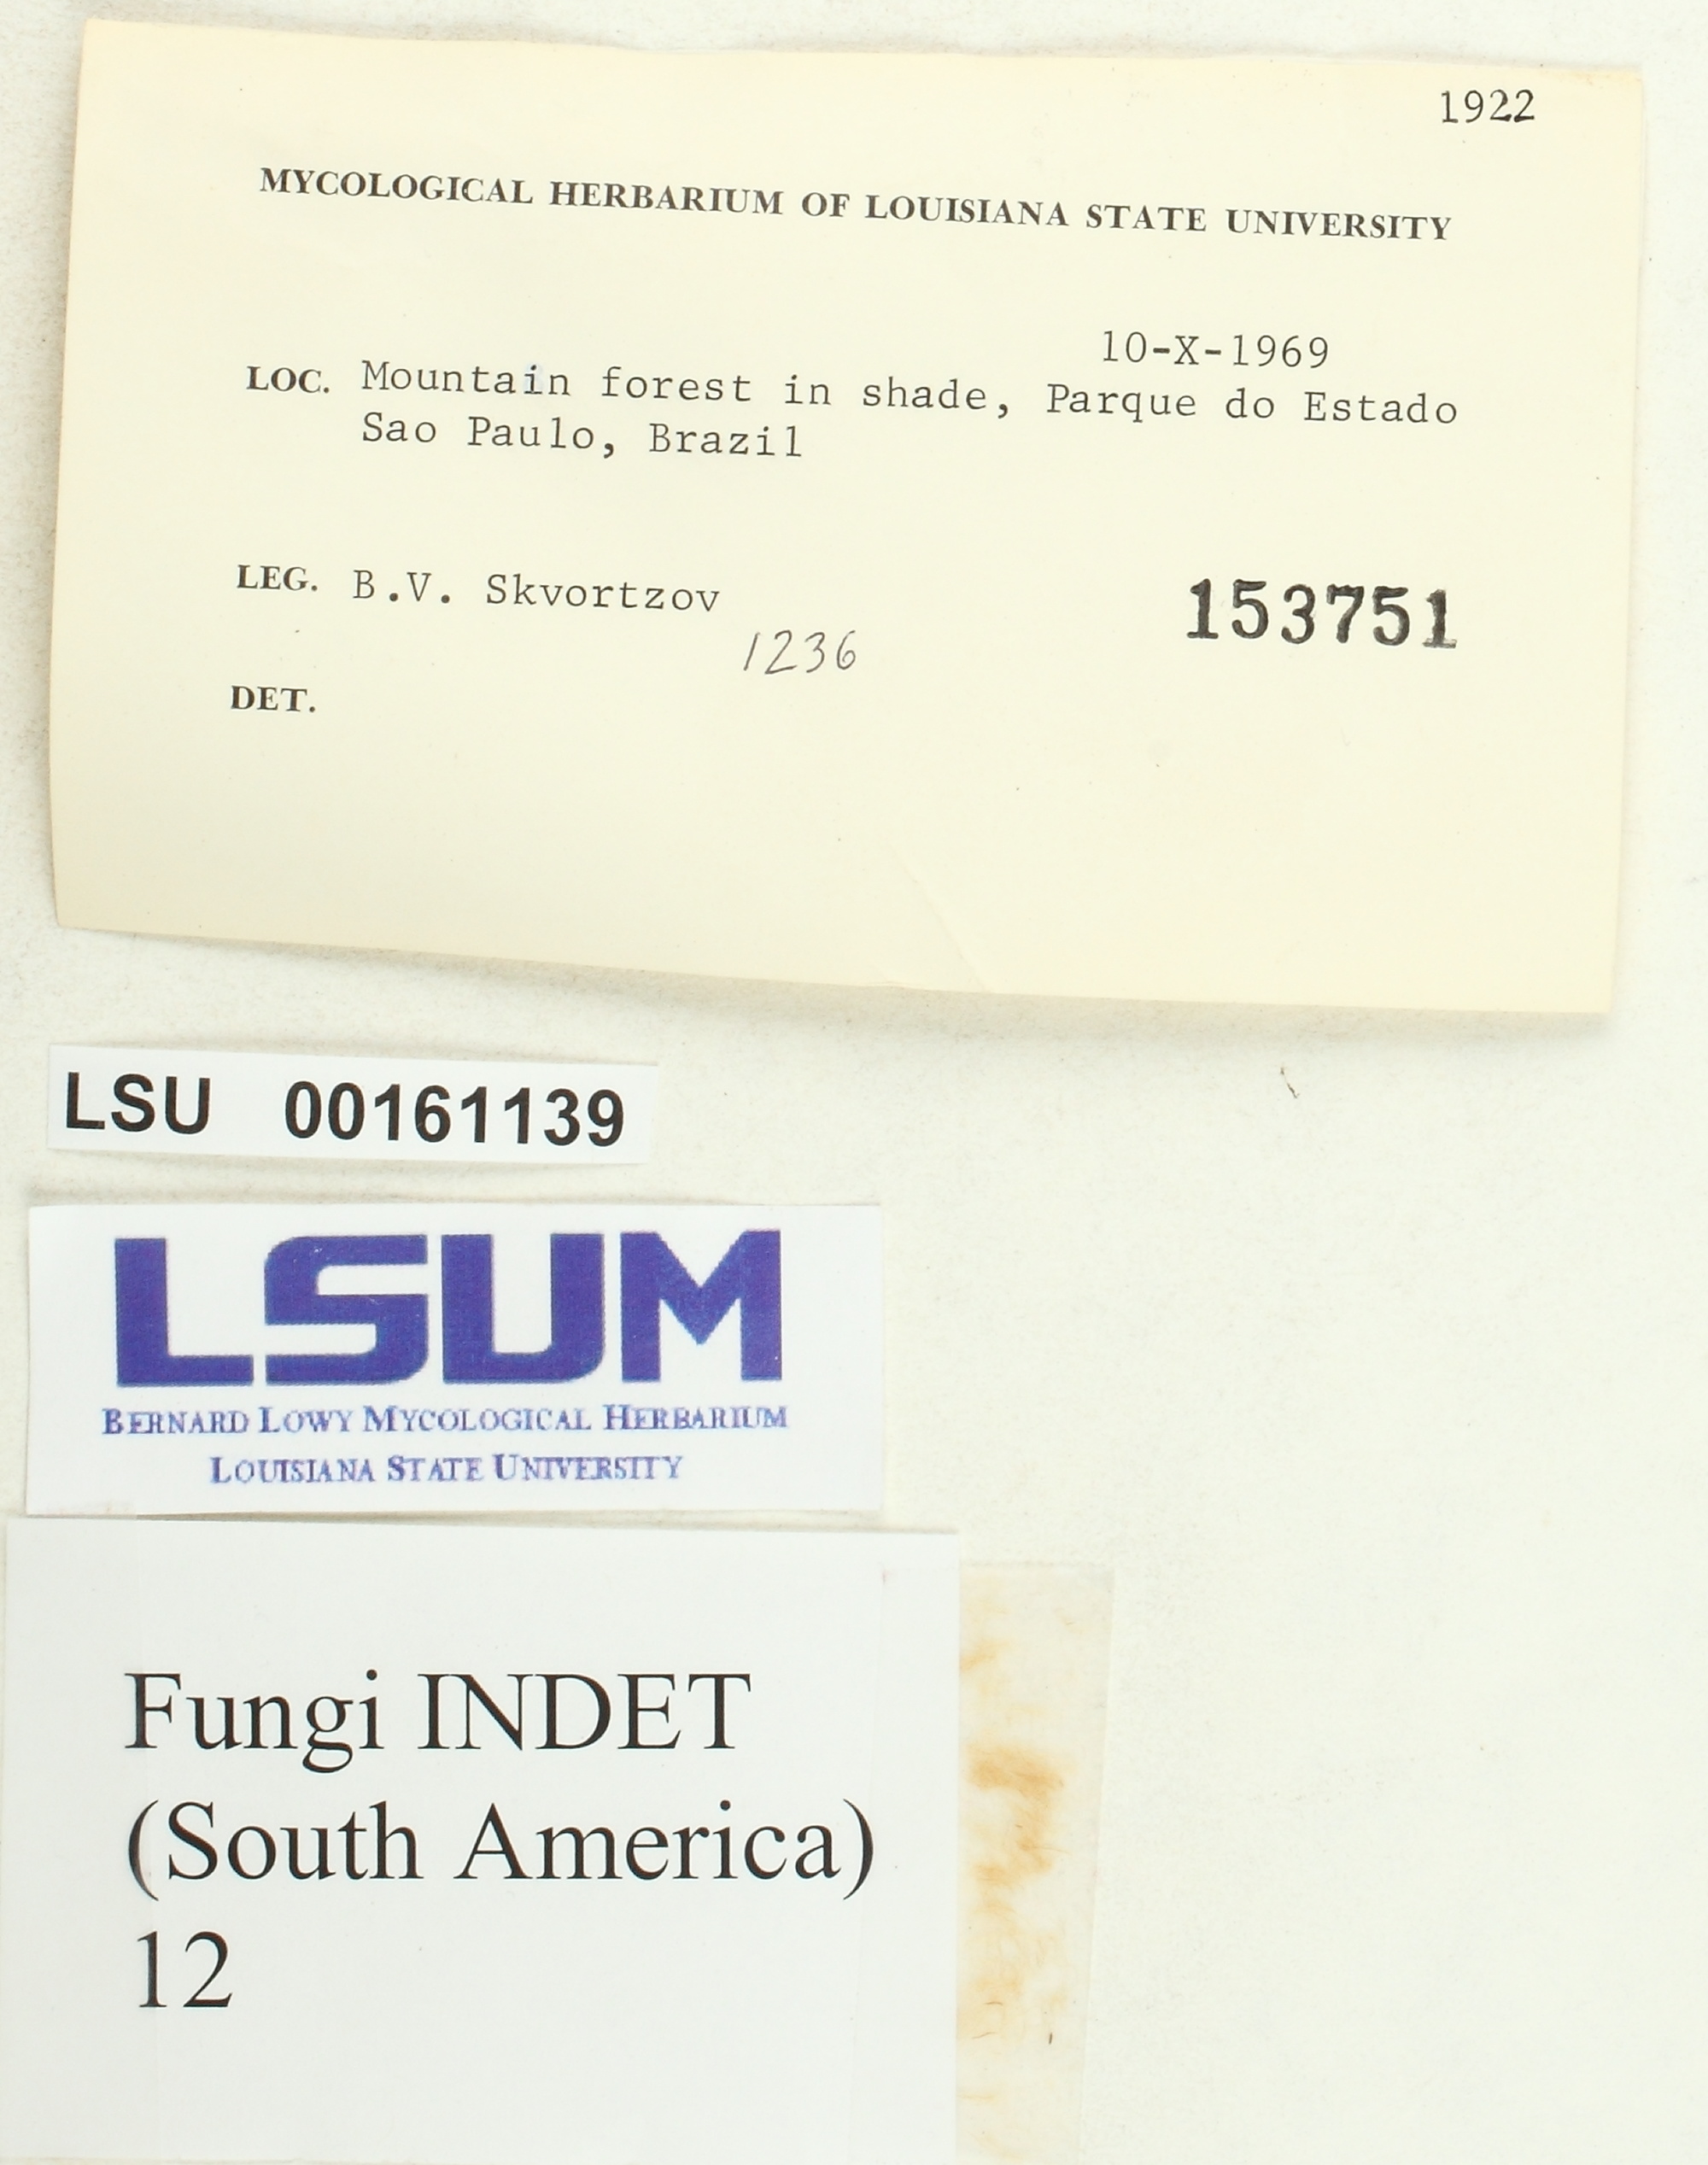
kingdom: Fungi
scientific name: Fungi
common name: Fungi
